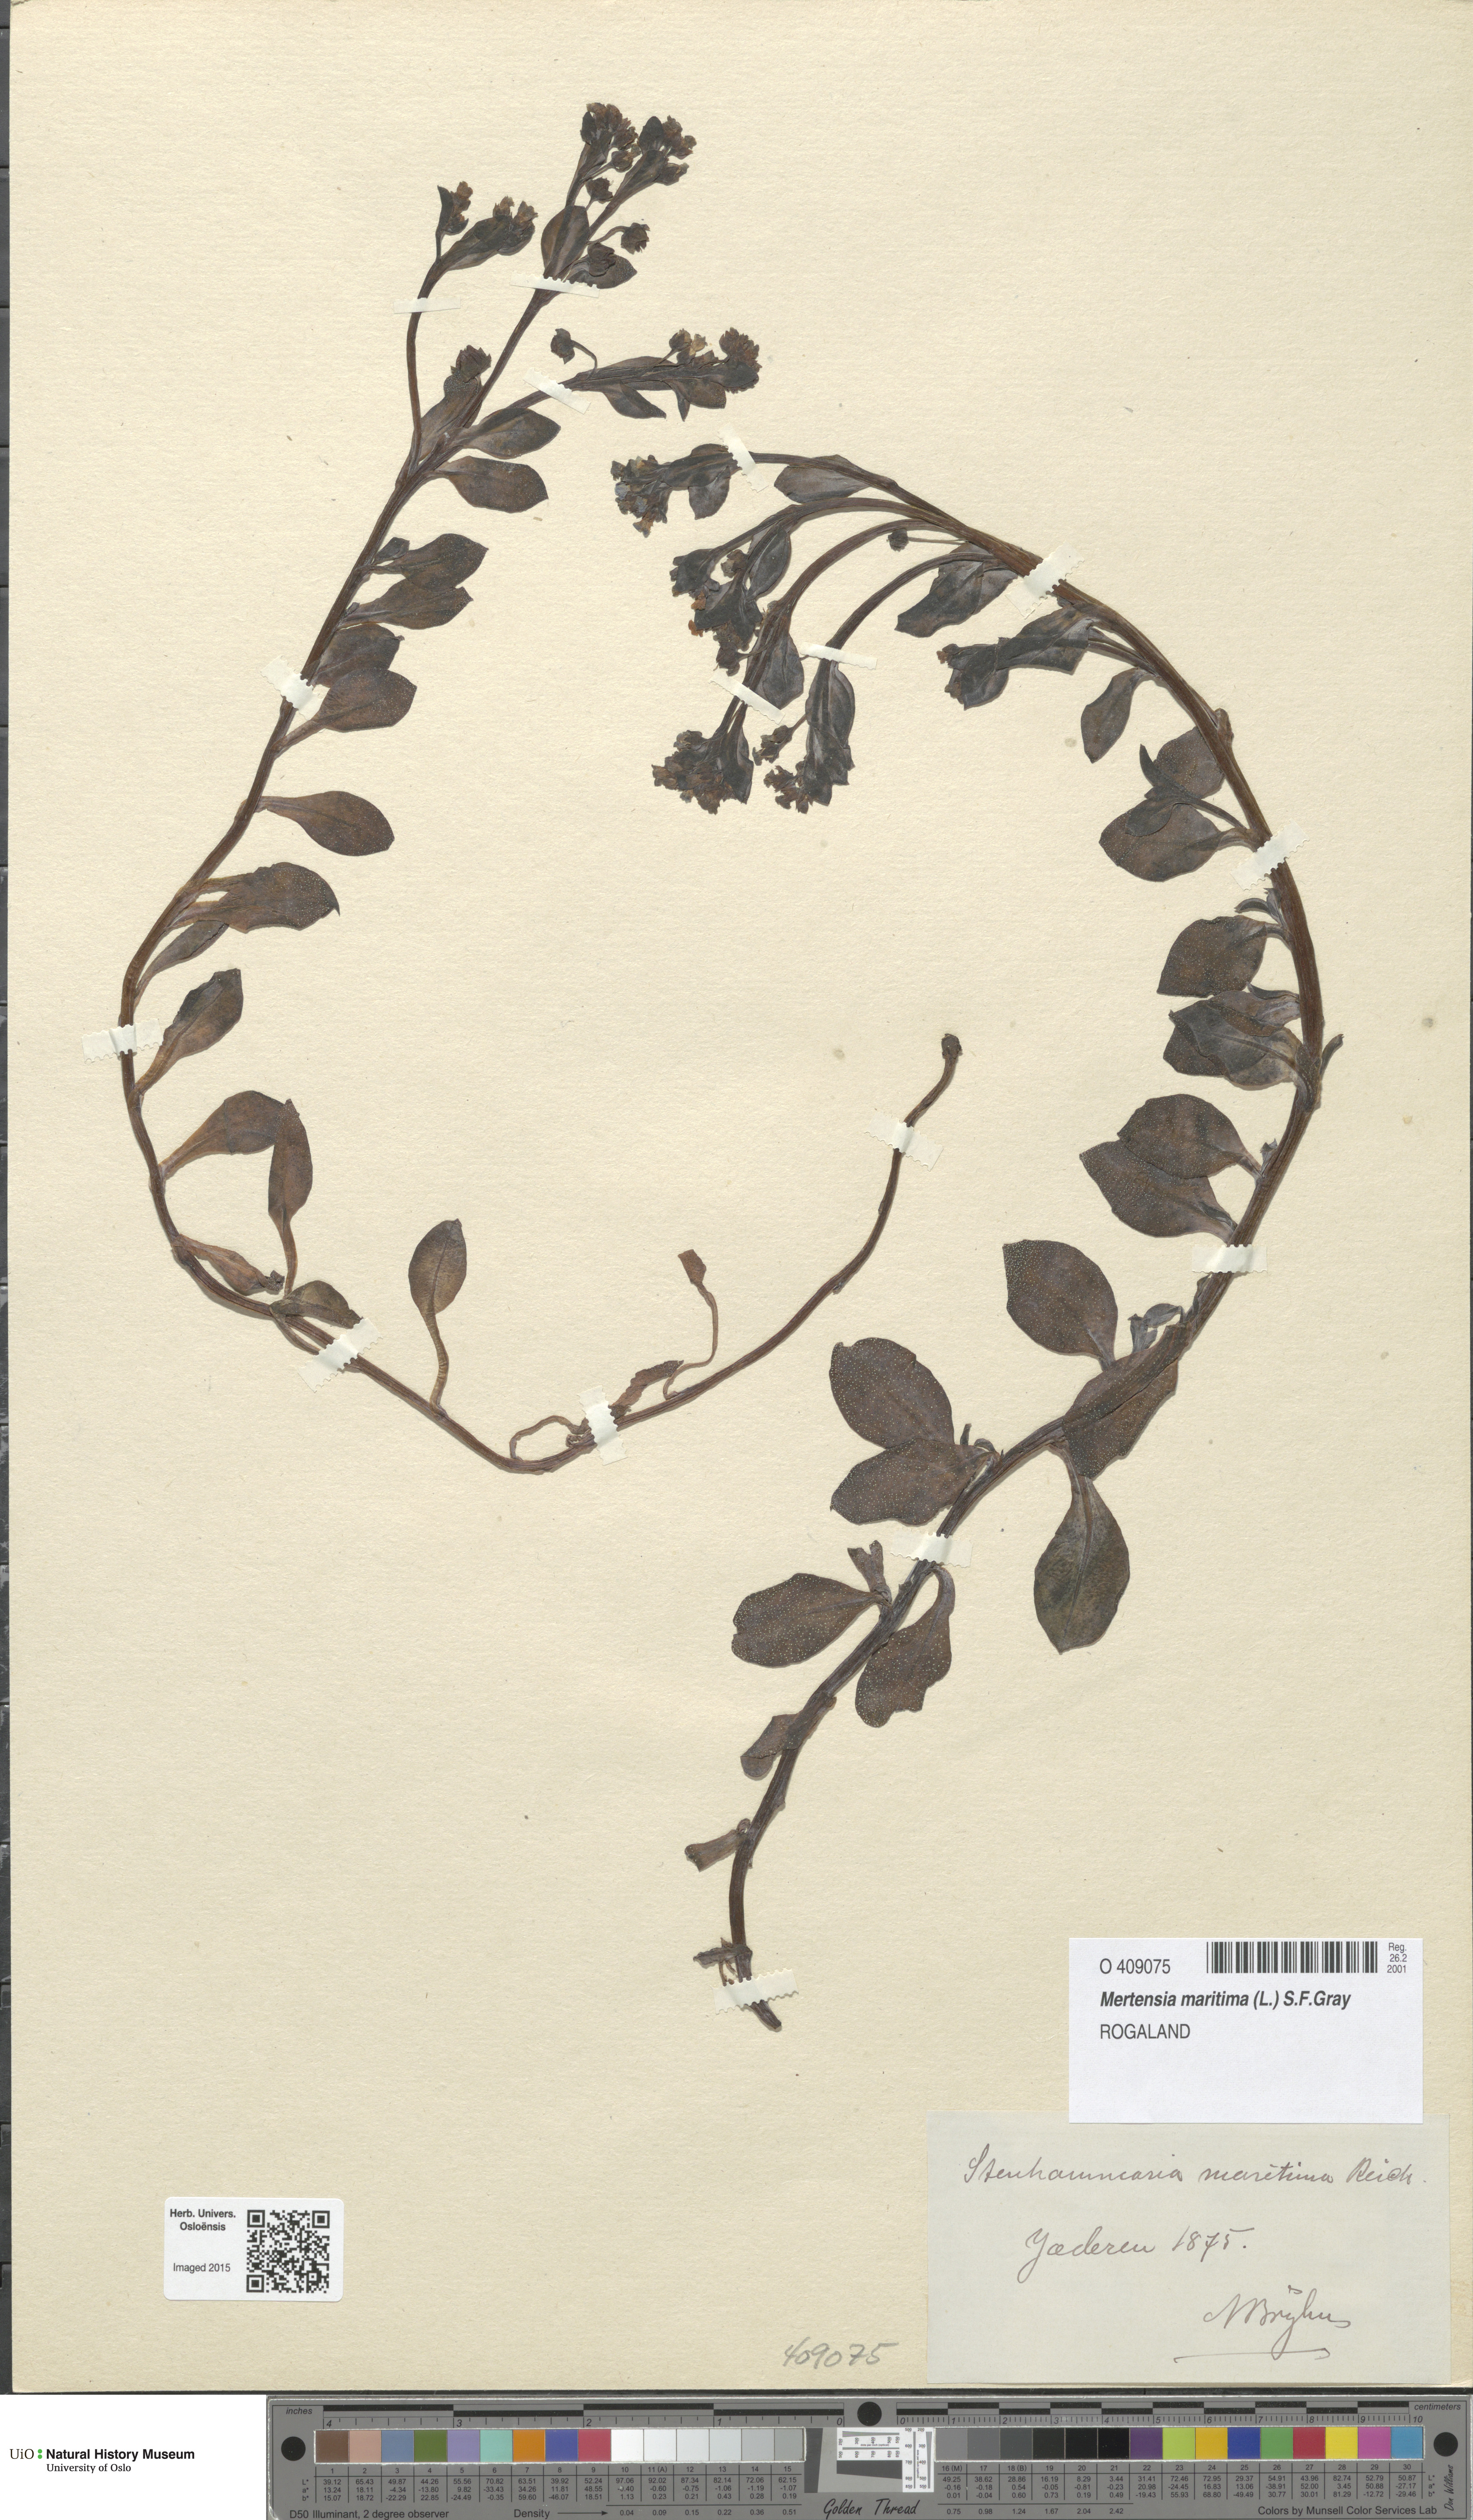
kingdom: Plantae
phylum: Tracheophyta
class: Magnoliopsida
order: Boraginales
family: Boraginaceae
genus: Mertensia
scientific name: Mertensia maritima
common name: Oysterplant
